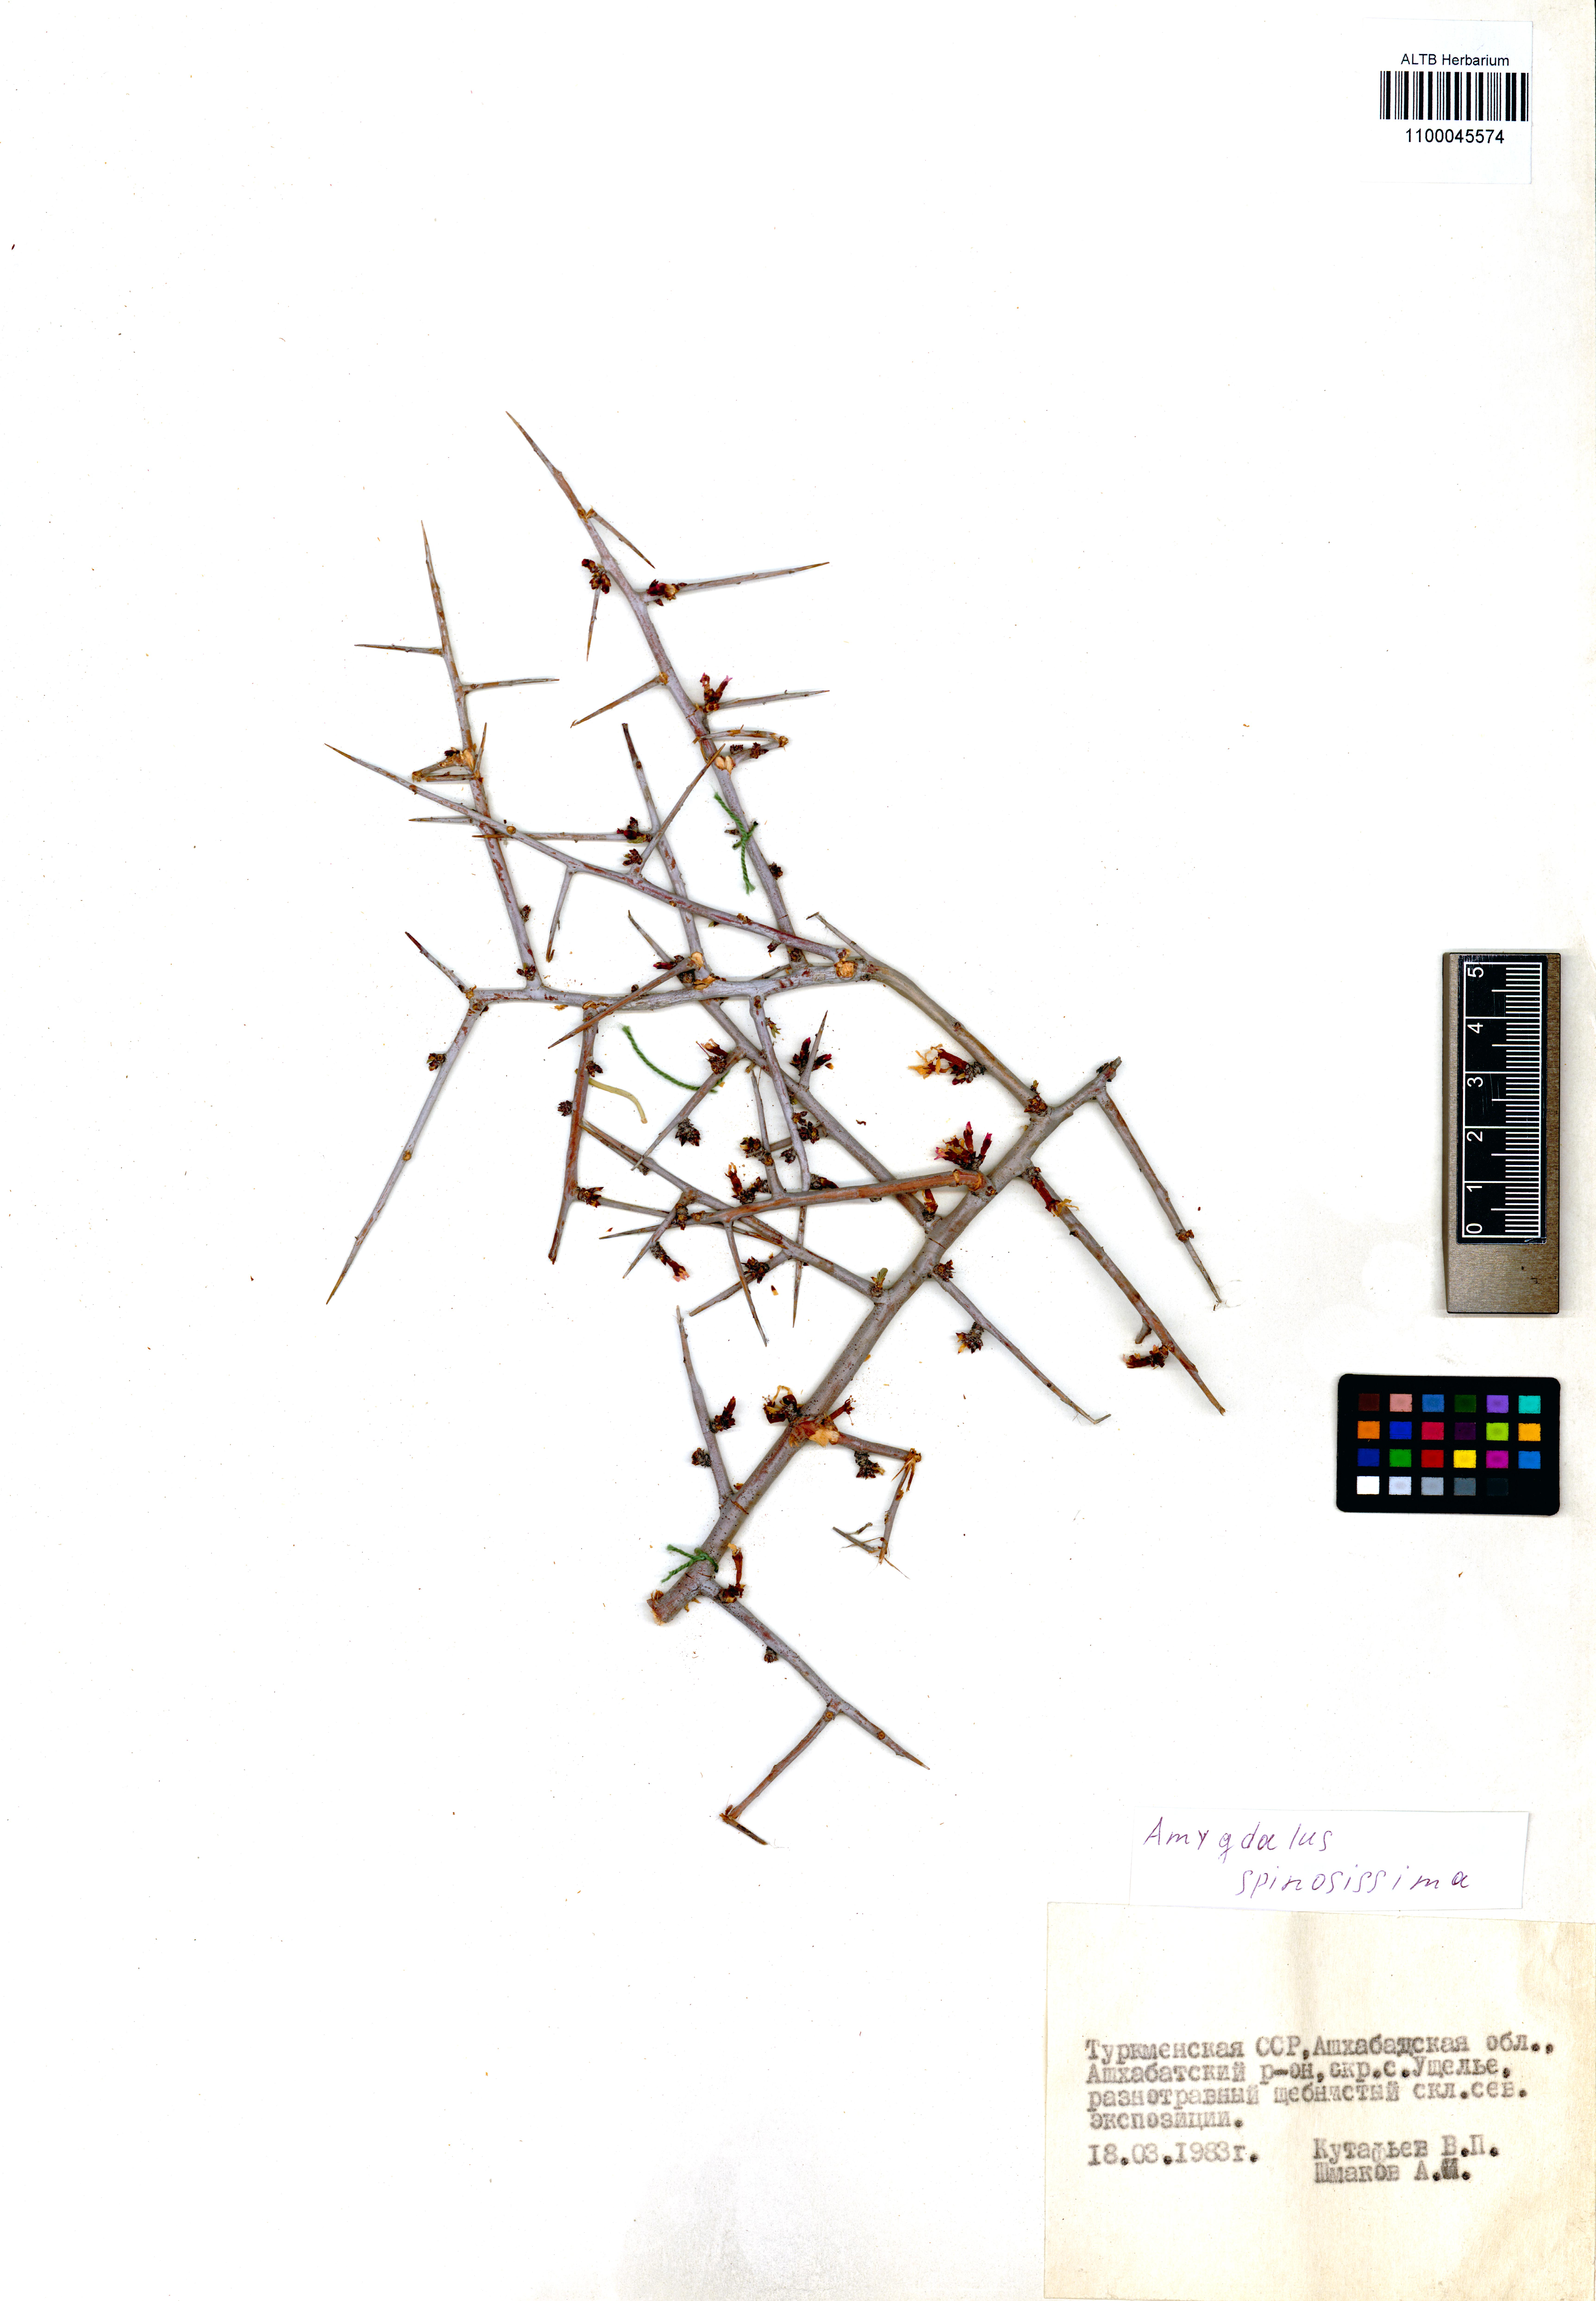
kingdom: Plantae
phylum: Tracheophyta
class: Magnoliopsida
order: Rosales
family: Rosaceae
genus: Prunus
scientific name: Prunus spinosissima
